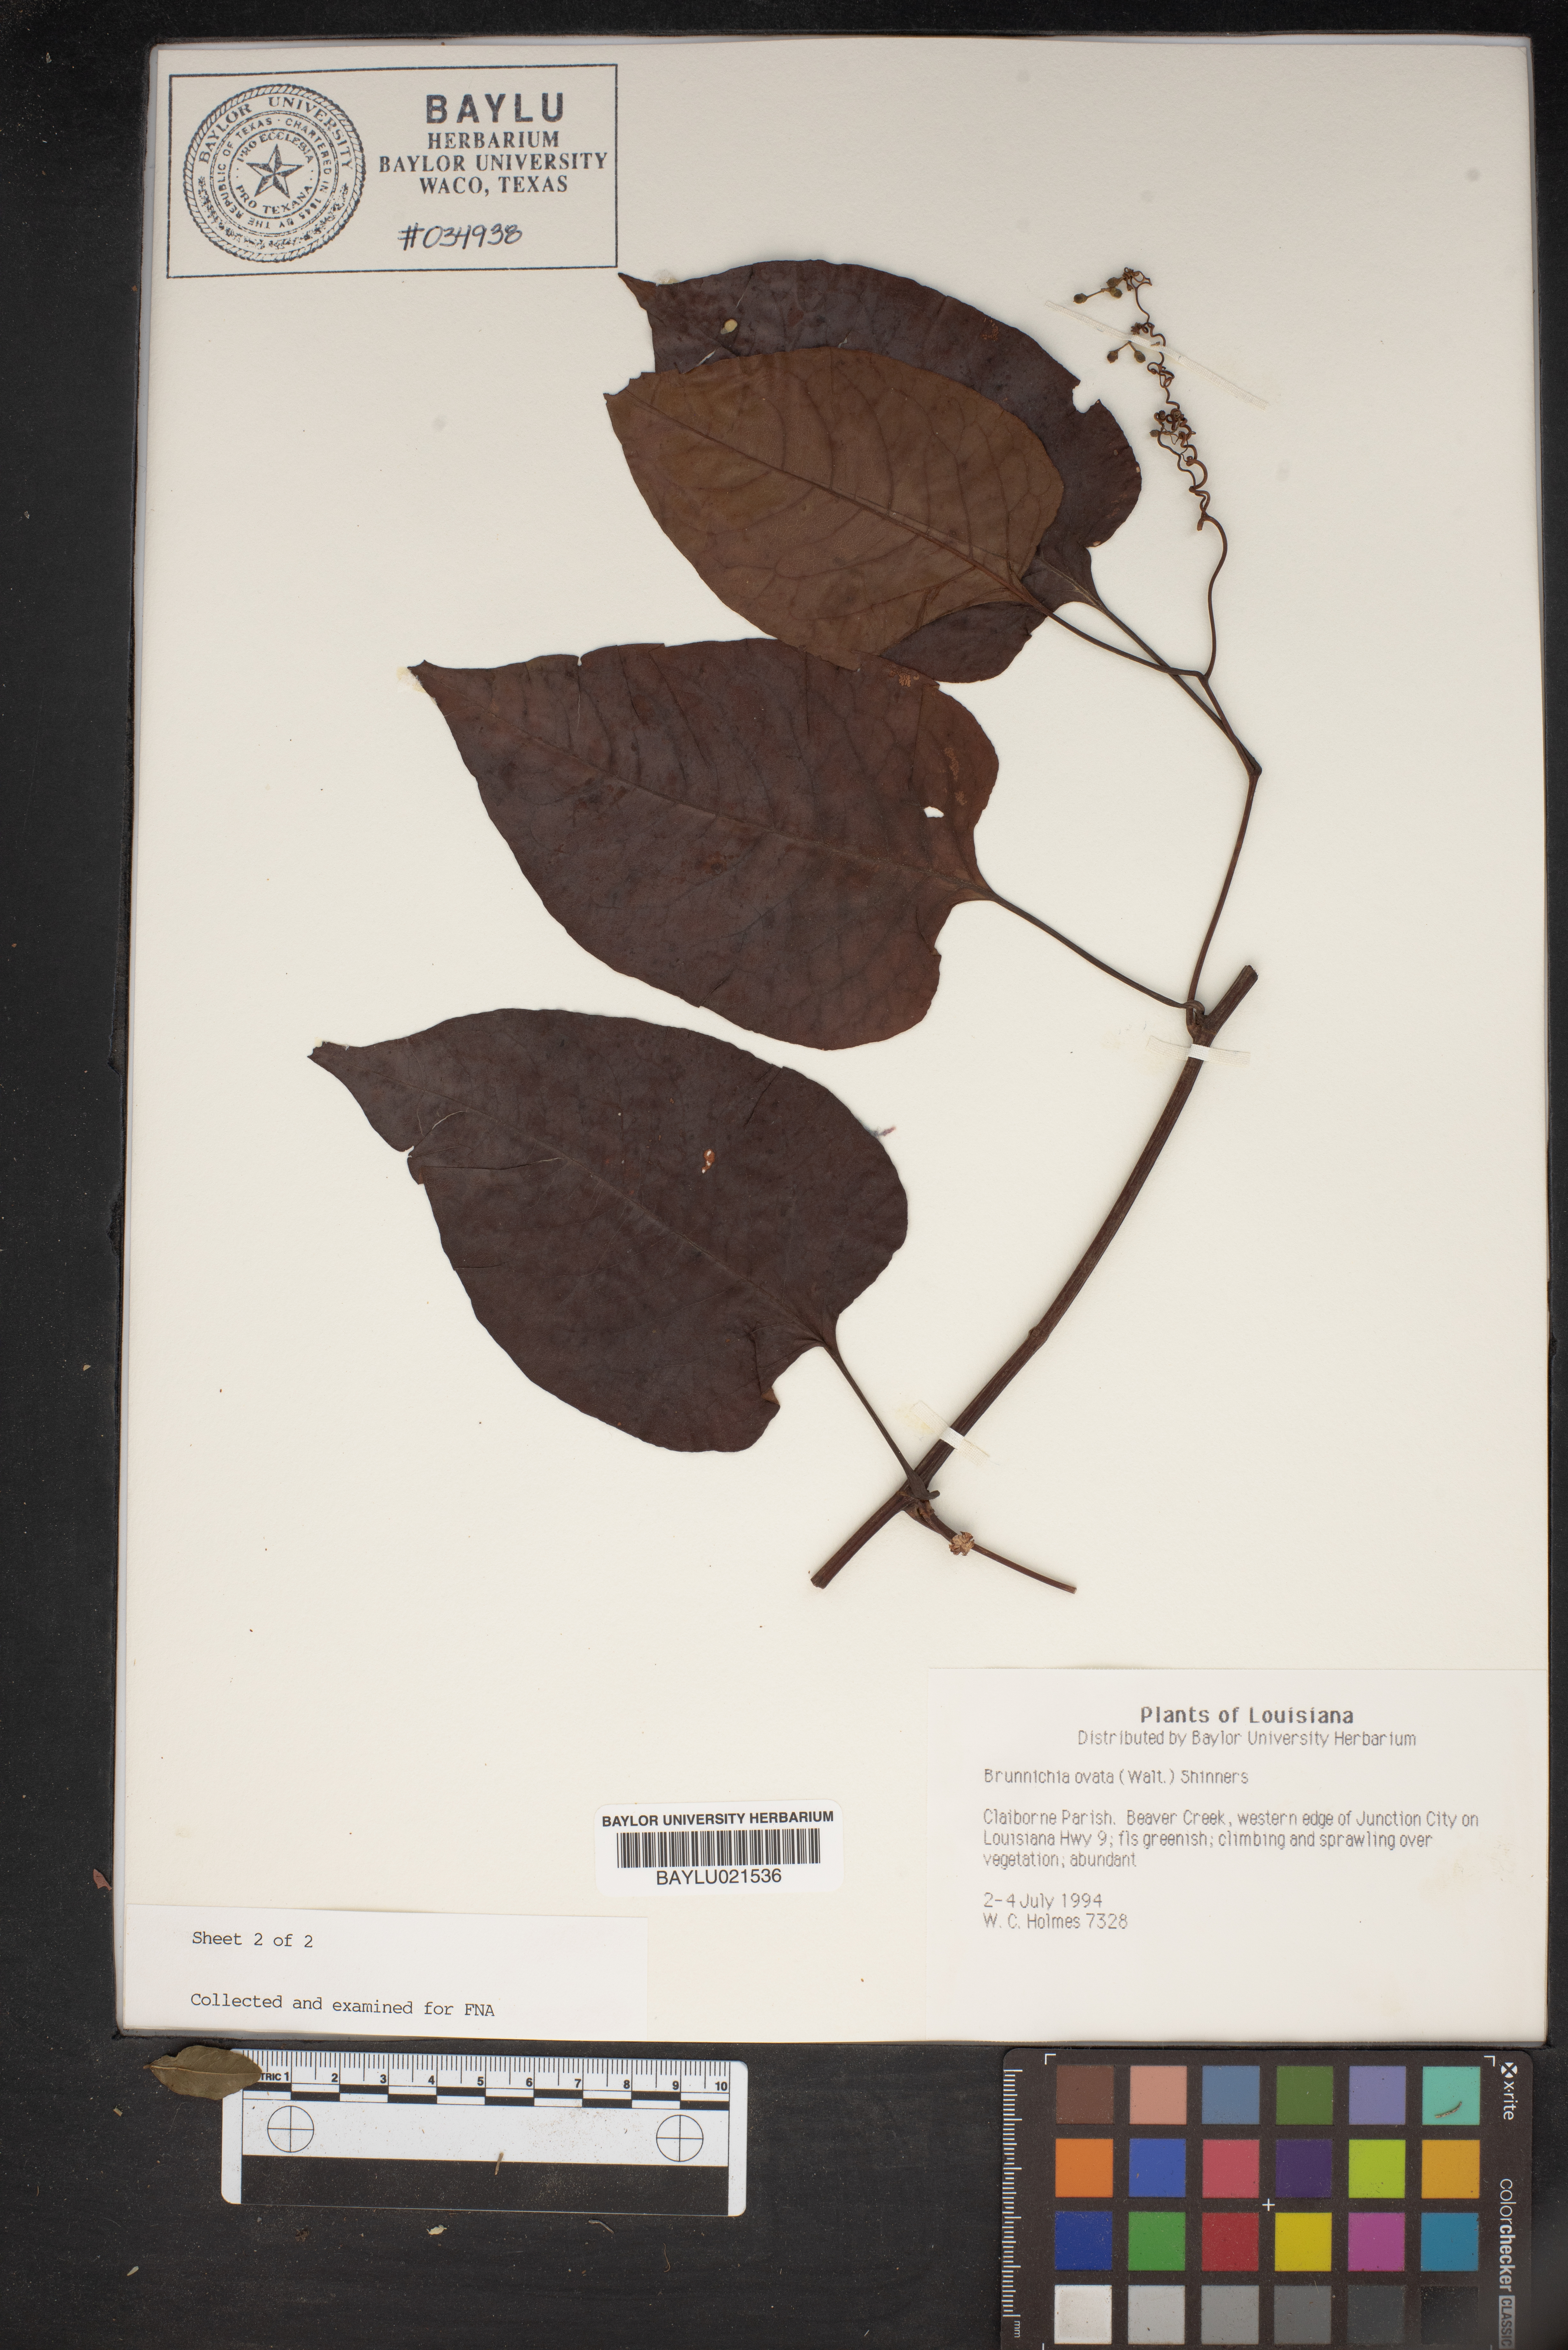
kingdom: Plantae
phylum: Tracheophyta
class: Magnoliopsida
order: Caryophyllales
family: Polygonaceae
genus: Brunnichia
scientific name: Brunnichia ovata
